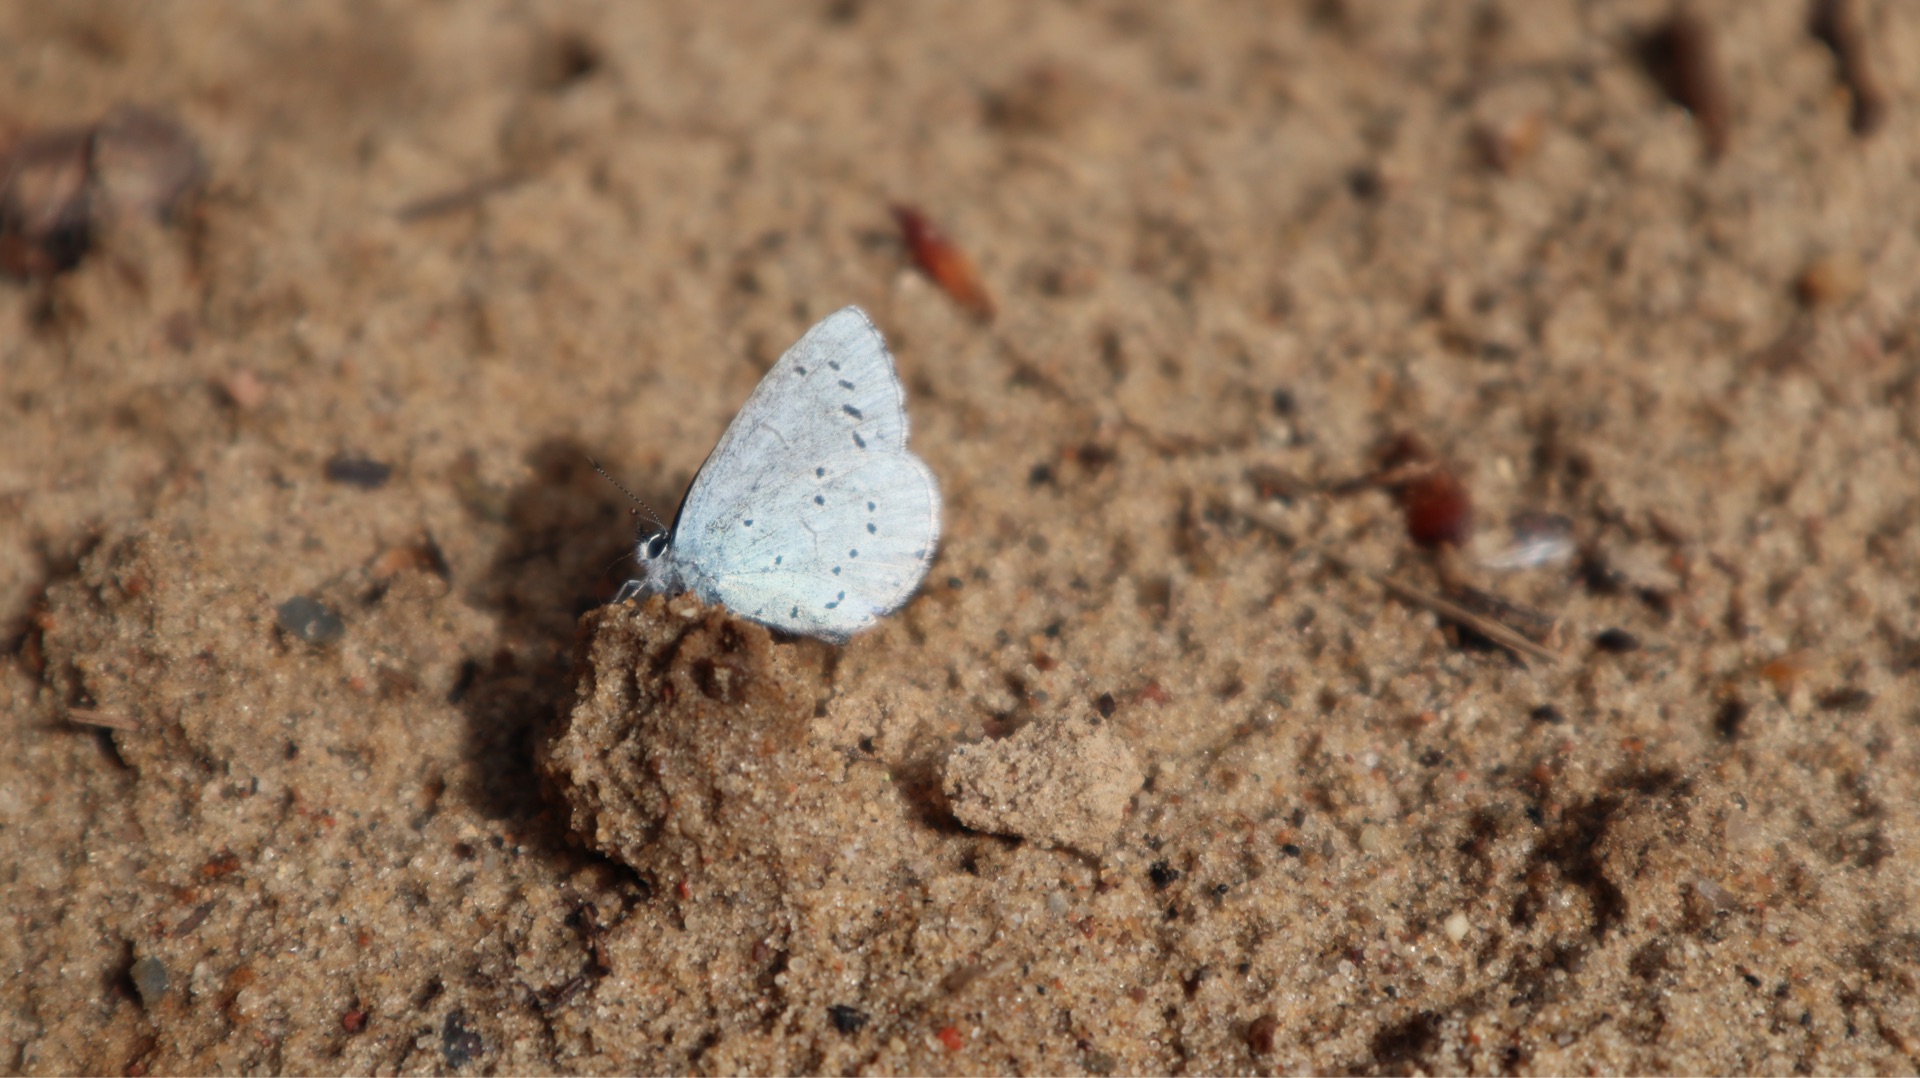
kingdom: Animalia
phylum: Arthropoda
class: Insecta
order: Lepidoptera
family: Lycaenidae
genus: Celastrina
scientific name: Celastrina argiolus
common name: Skovblåfugl
